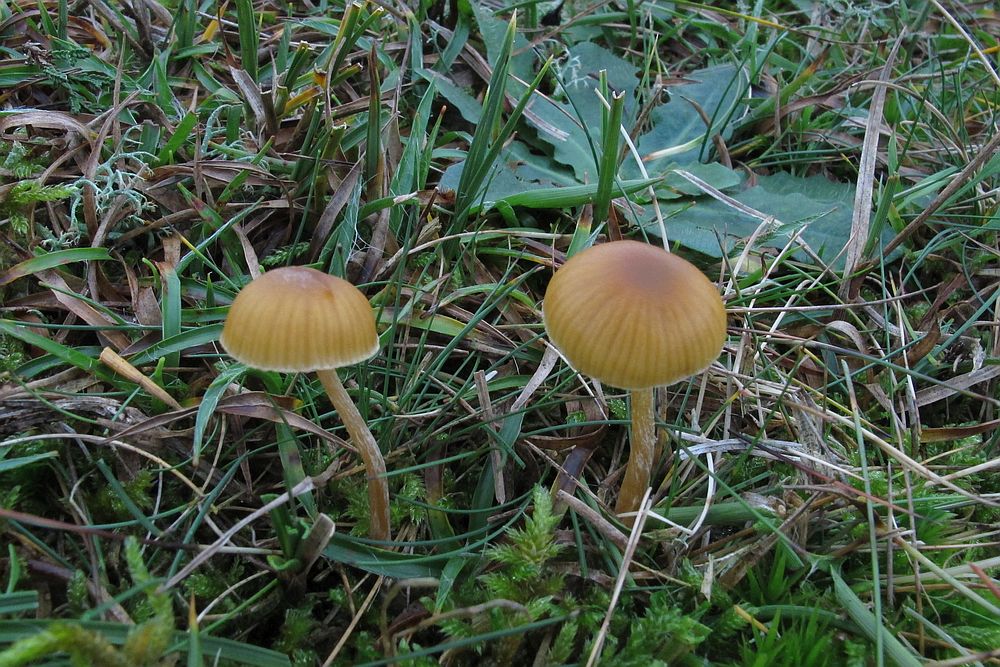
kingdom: Fungi
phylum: Basidiomycota
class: Agaricomycetes
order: Agaricales
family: Hymenogastraceae
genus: Galerina
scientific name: Galerina pumila
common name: honninggul hjelmhat
